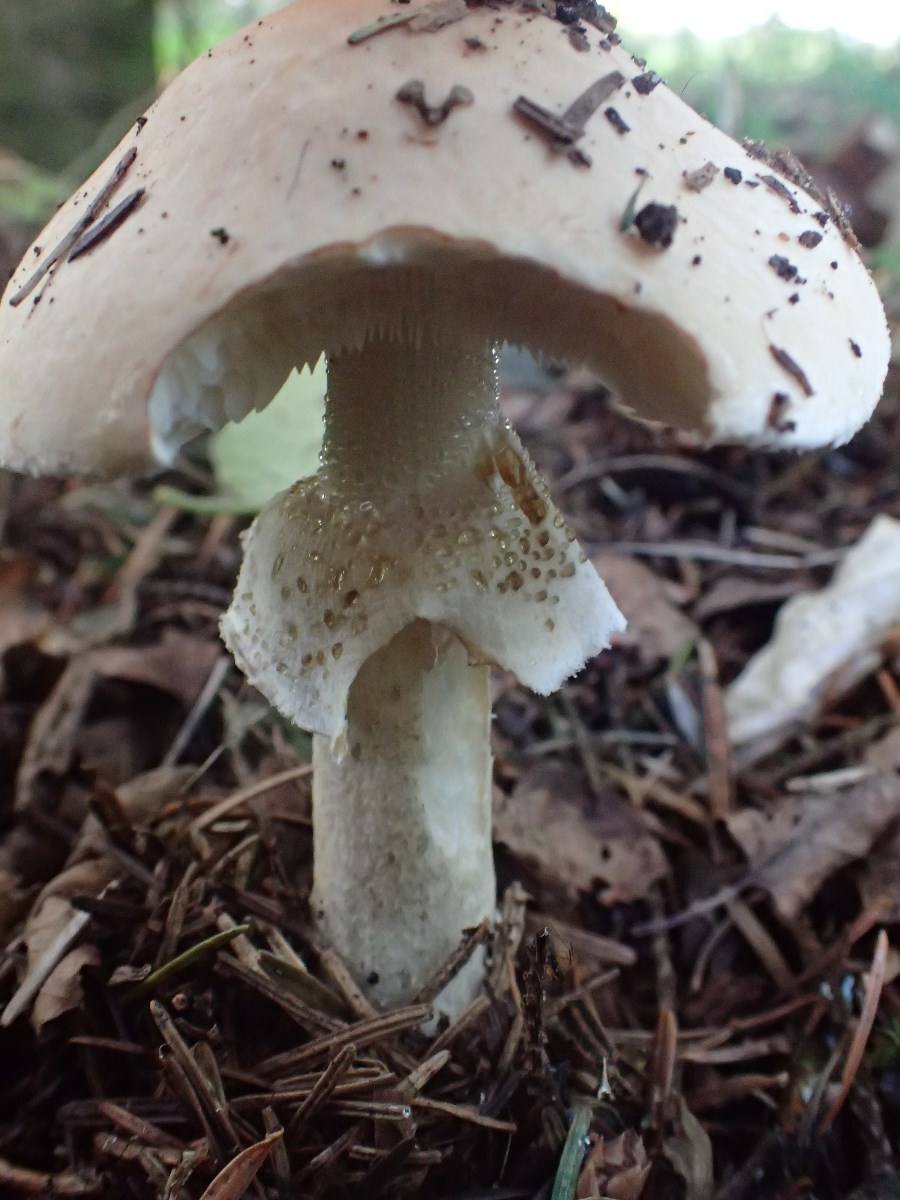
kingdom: Fungi
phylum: Basidiomycota
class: Agaricomycetes
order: Agaricales
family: Amanitaceae
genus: Limacellopsis
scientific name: Limacellopsis guttata
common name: tåre-snekkehat
